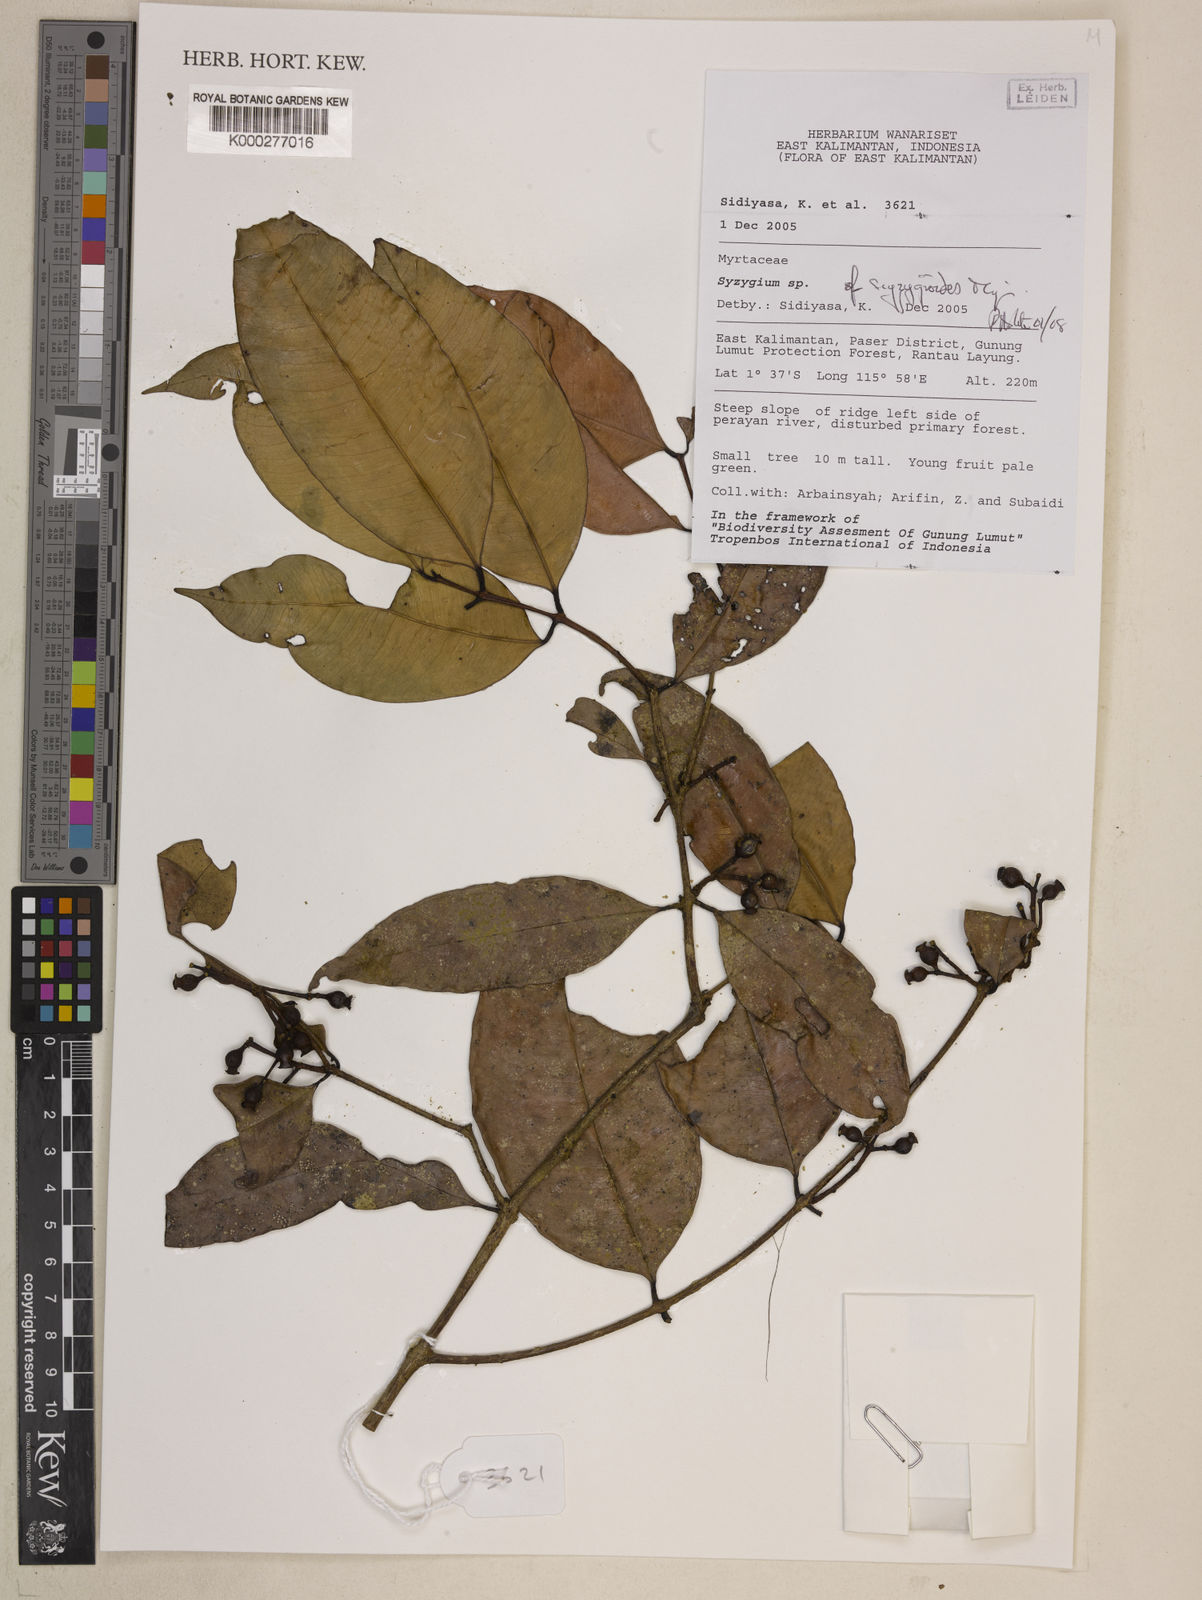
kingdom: Plantae
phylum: Tracheophyta
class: Magnoliopsida
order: Myrtales
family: Myrtaceae
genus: Syzygium
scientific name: Syzygium syzygioides
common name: Myrtle
